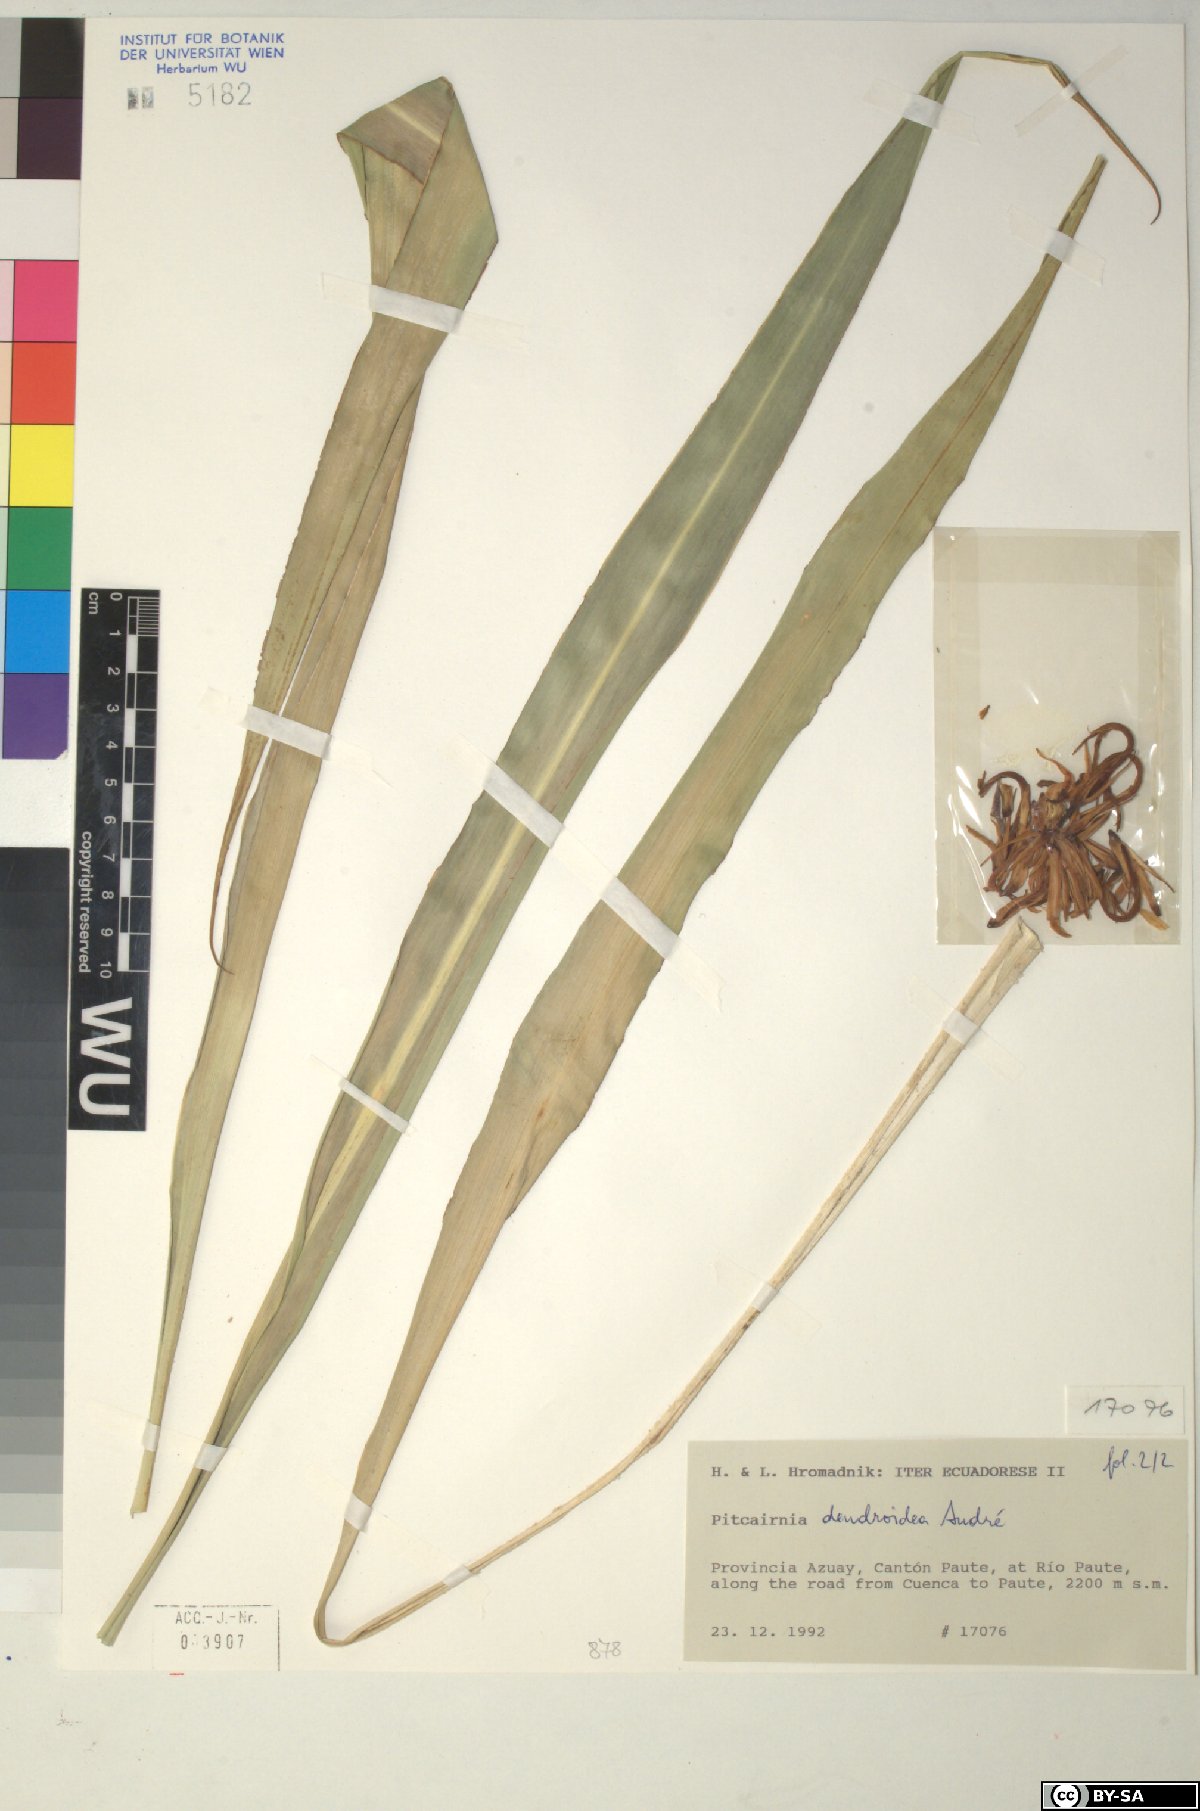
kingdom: Plantae
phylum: Tracheophyta
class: Liliopsida
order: Poales
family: Bromeliaceae
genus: Pitcairnia
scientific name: Pitcairnia dendroidea
